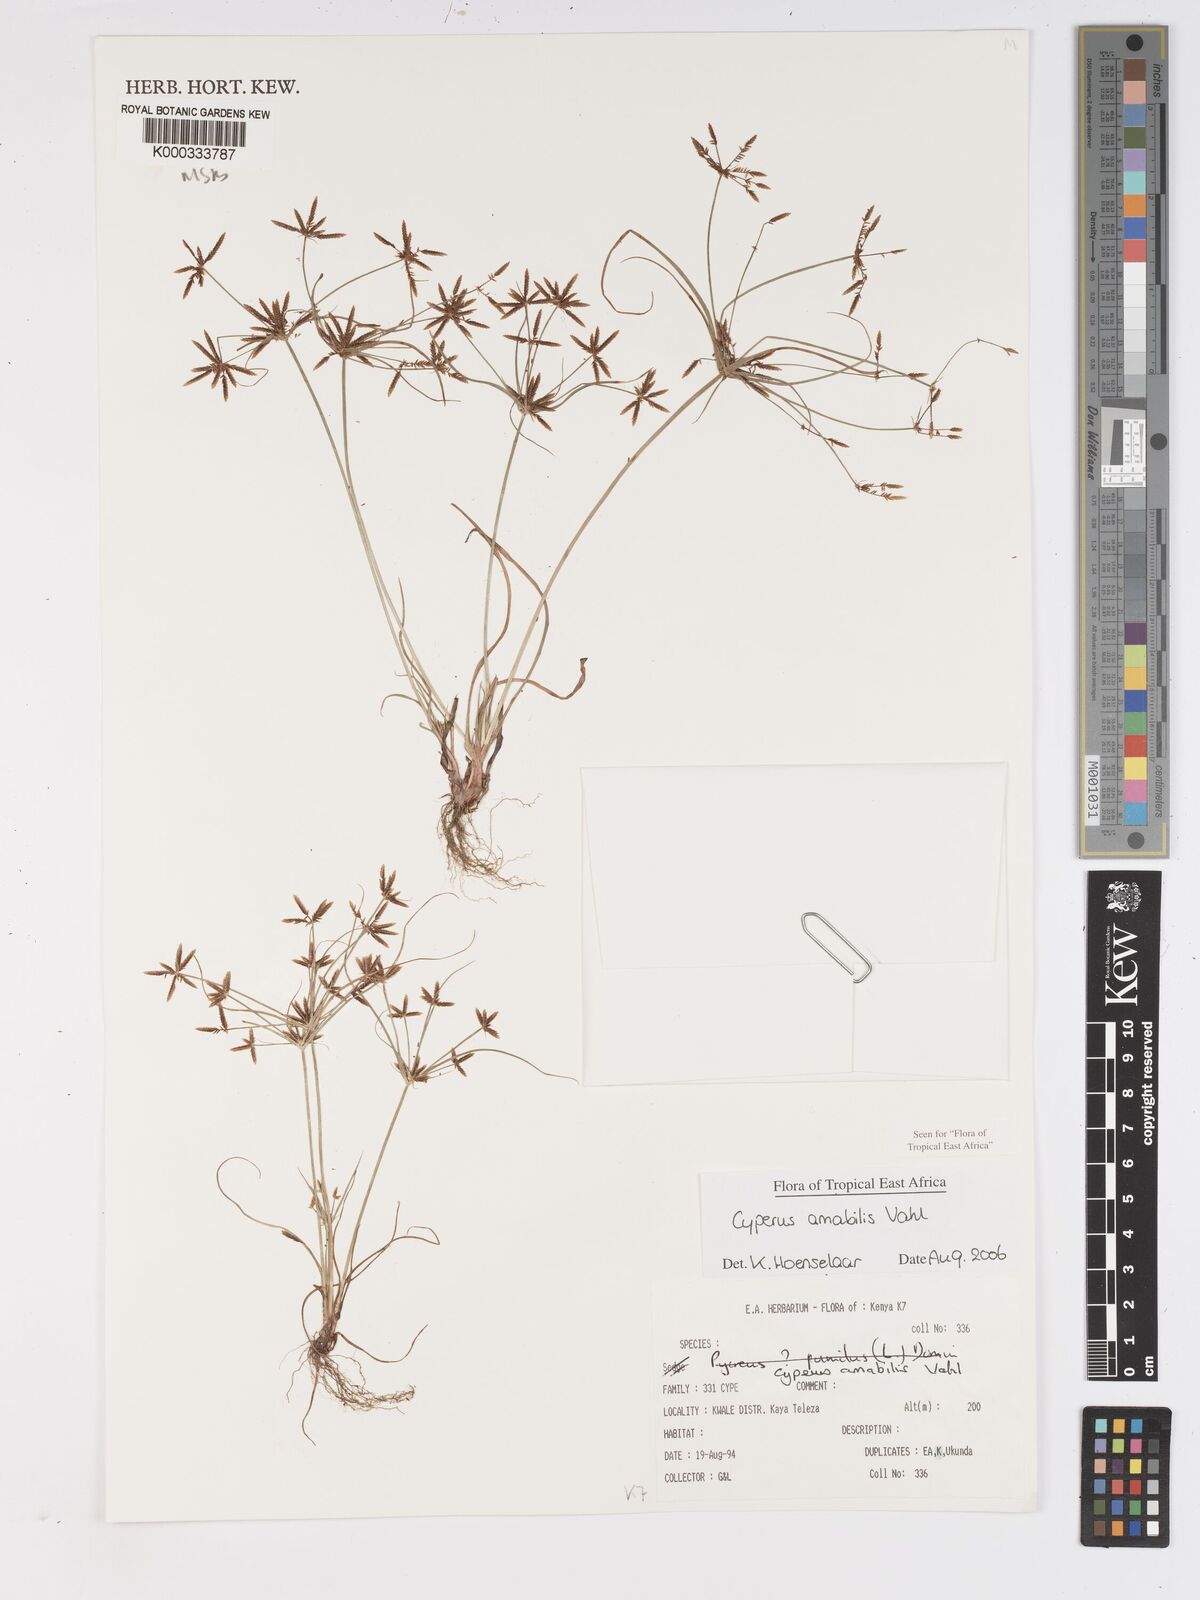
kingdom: Plantae
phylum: Tracheophyta
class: Liliopsida
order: Poales
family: Cyperaceae
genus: Cyperus
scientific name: Cyperus amabilis
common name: Foothill flat sedge
